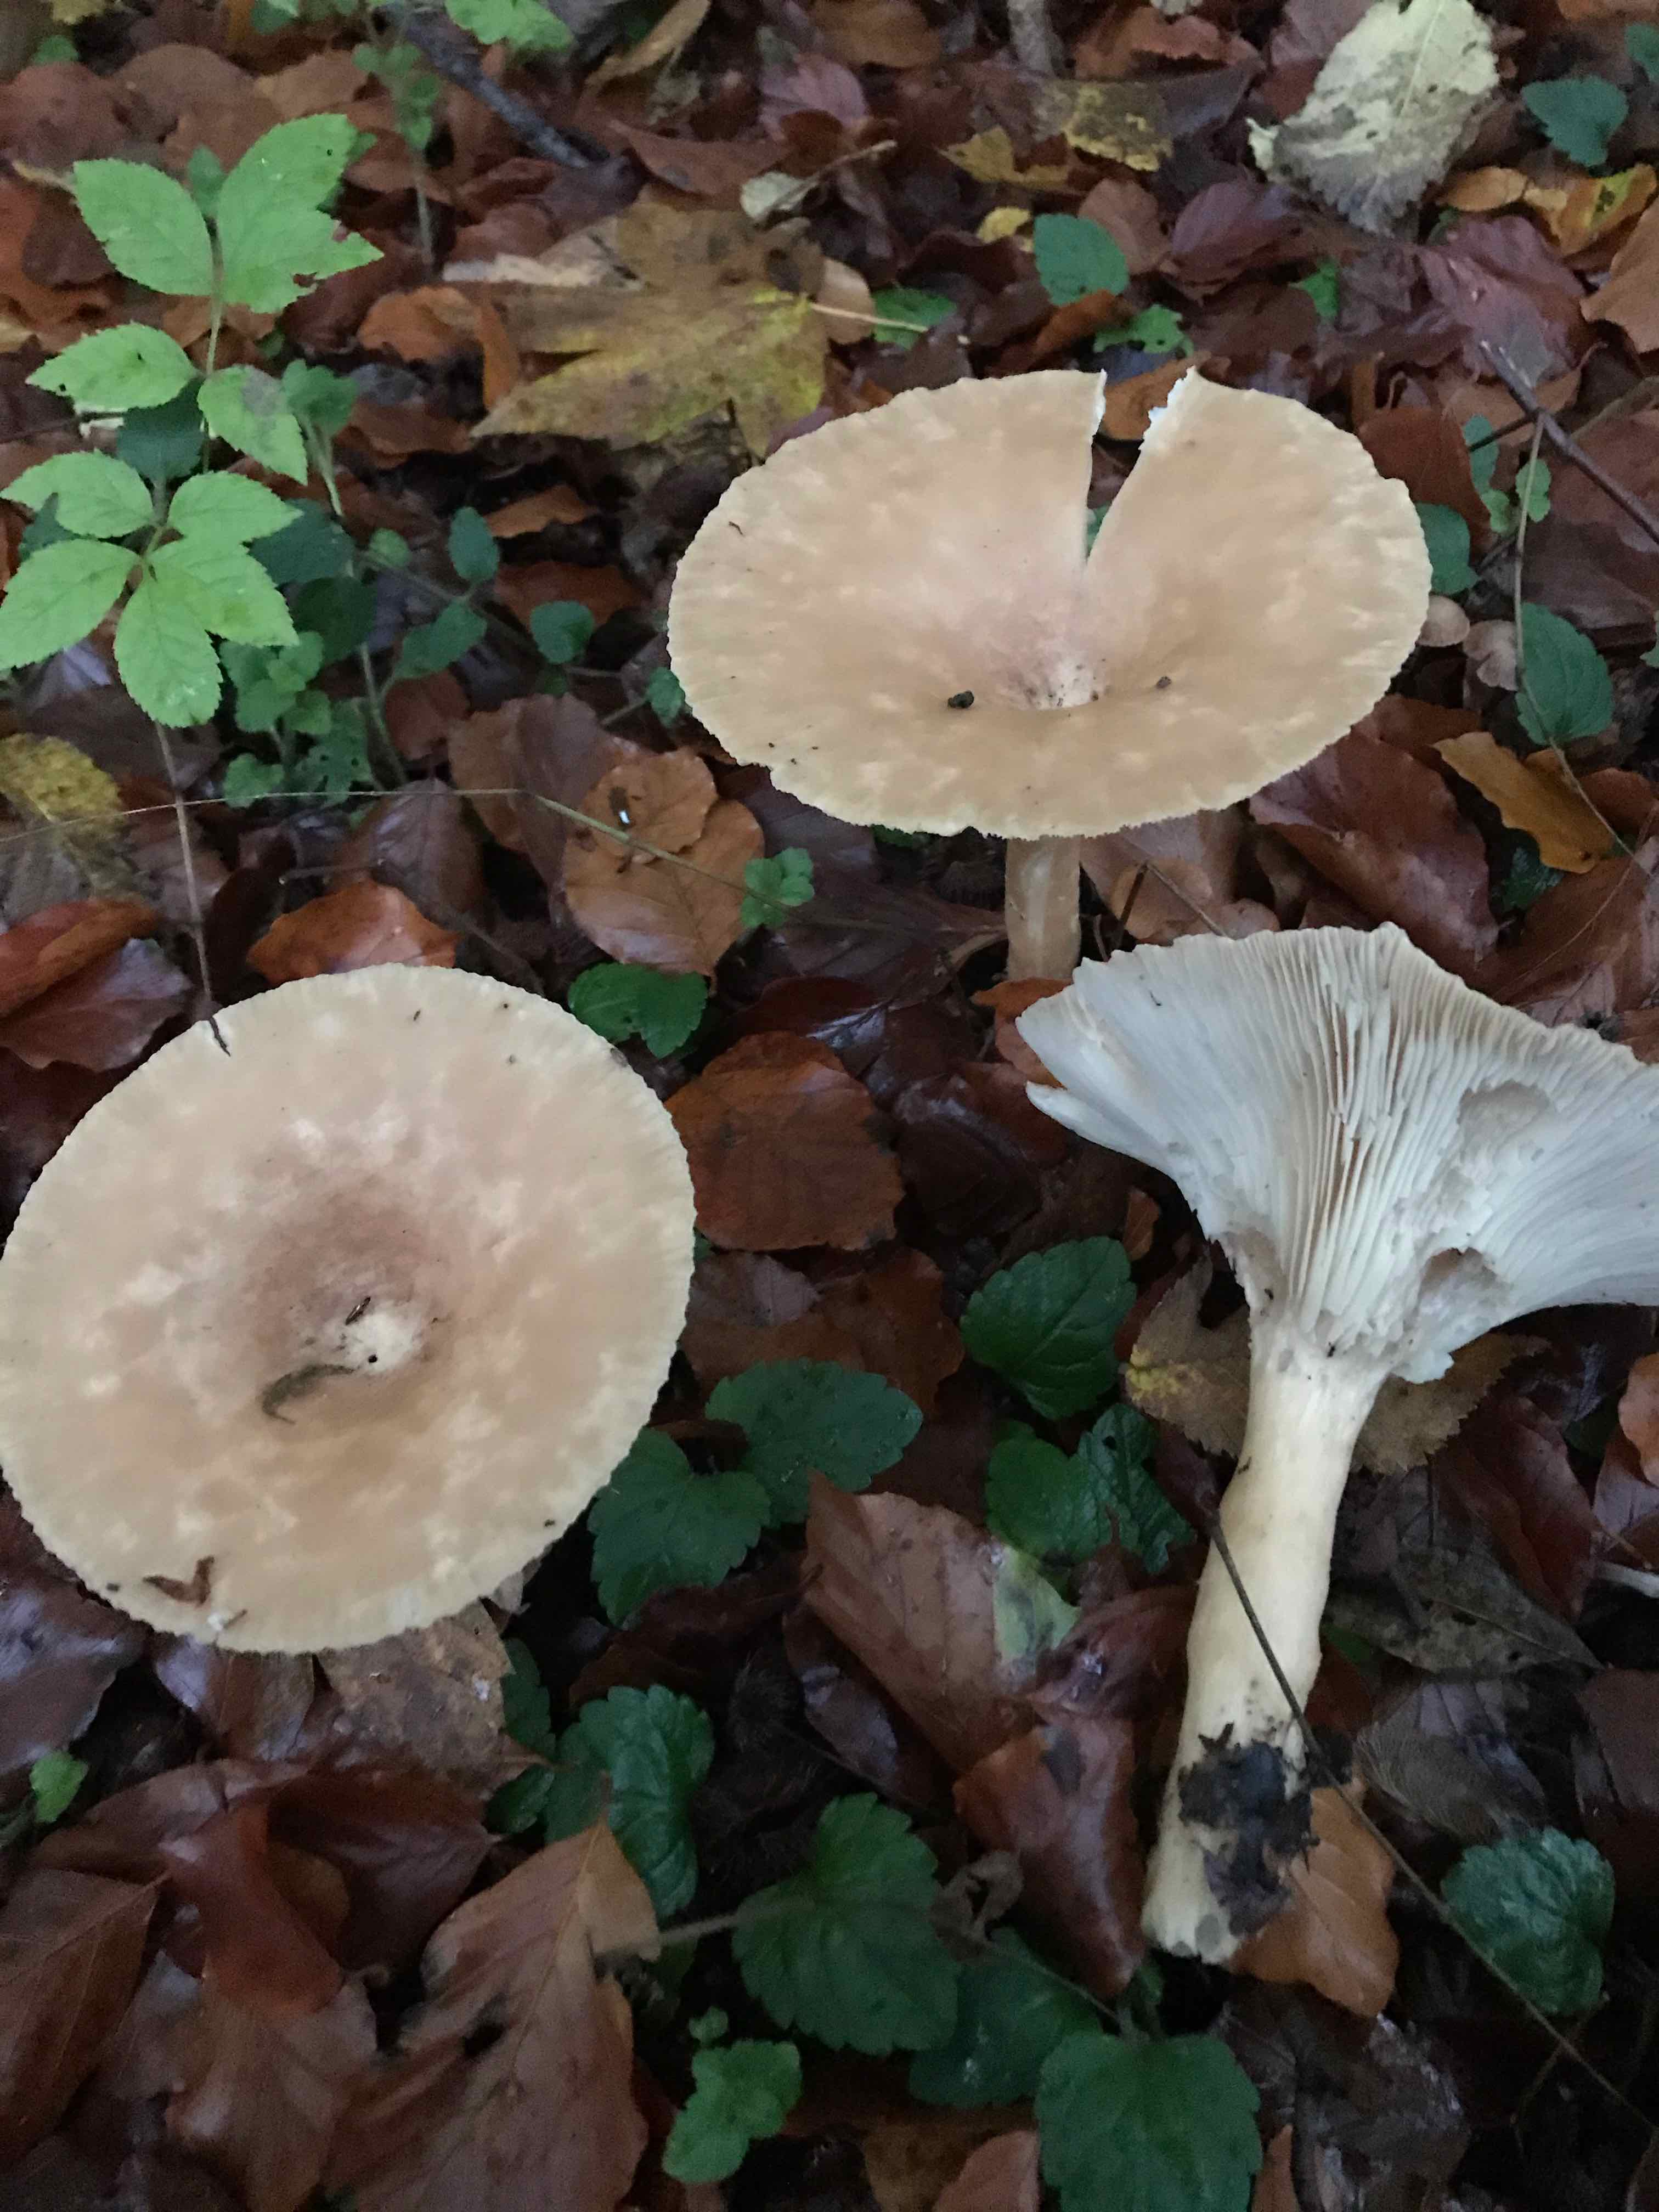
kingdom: Fungi
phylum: Basidiomycota
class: Agaricomycetes
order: Agaricales
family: Tricholomataceae
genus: Infundibulicybe
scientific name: Infundibulicybe geotropa
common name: stor tragthat
